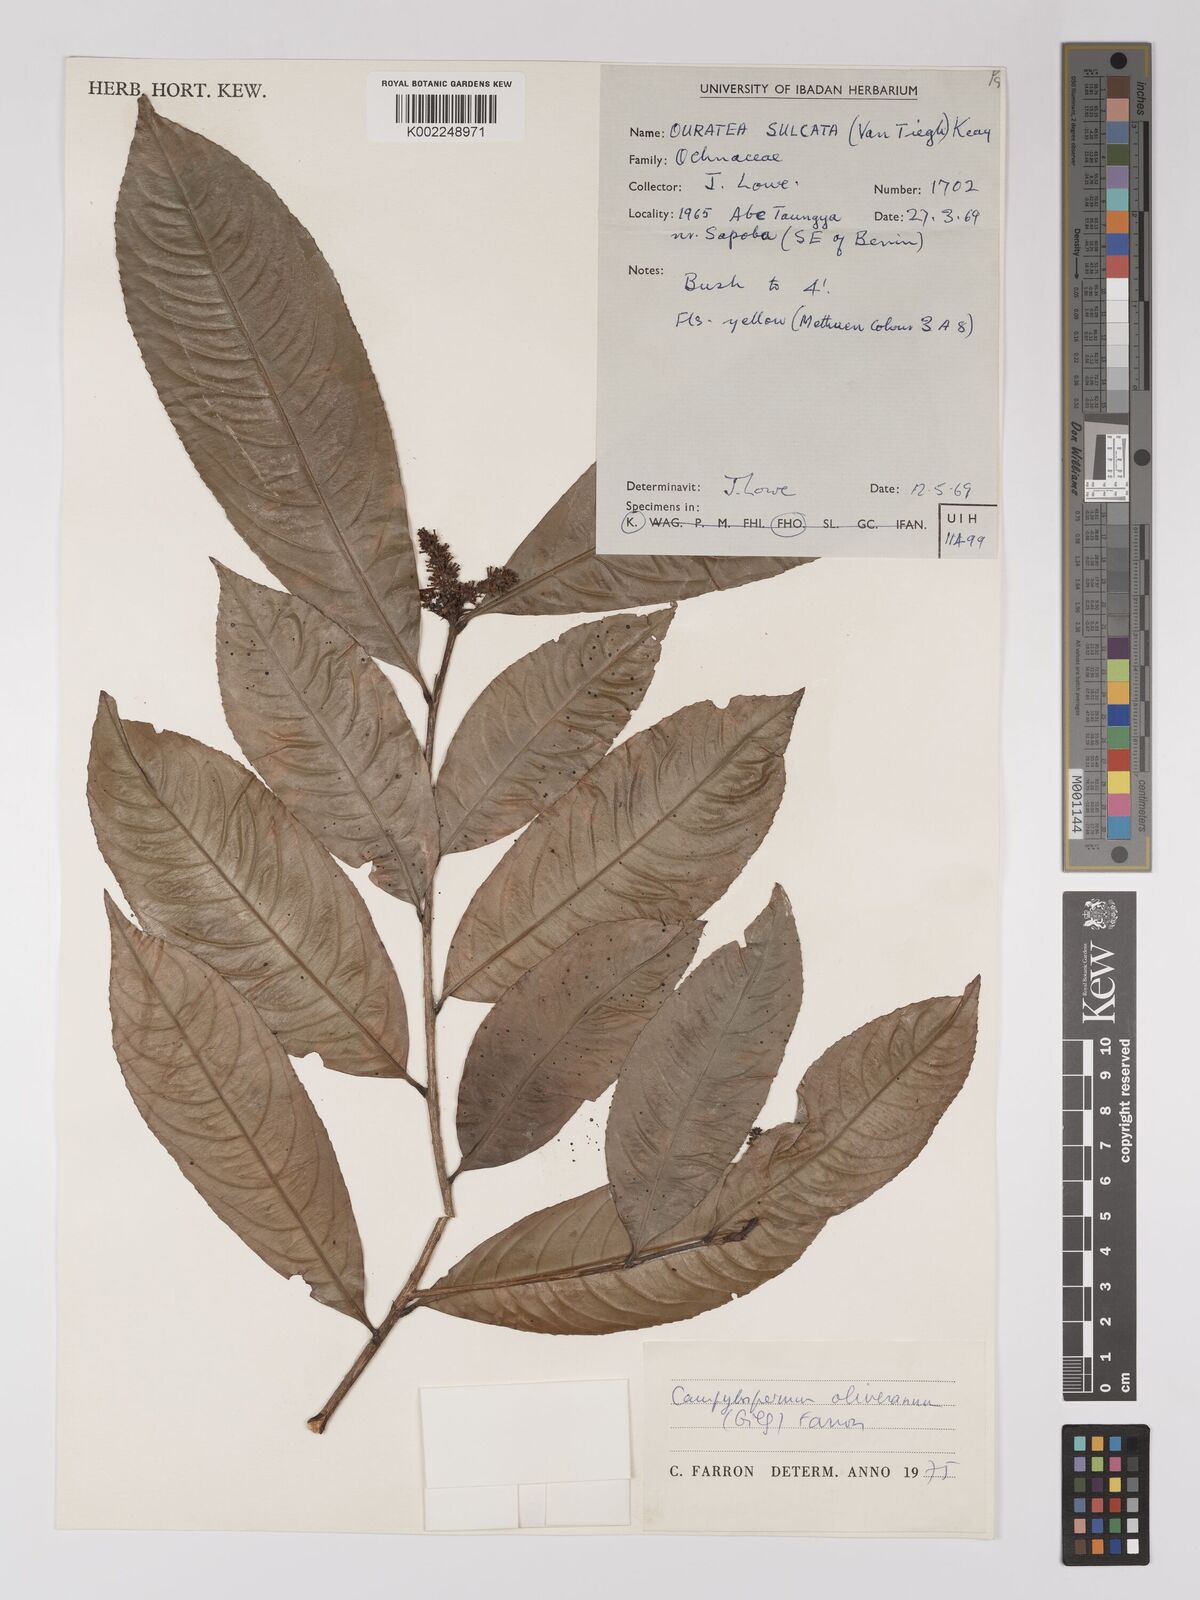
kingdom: Plantae
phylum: Tracheophyta
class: Magnoliopsida
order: Malpighiales
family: Ochnaceae
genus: Campylospermum
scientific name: Campylospermum oliverianum
